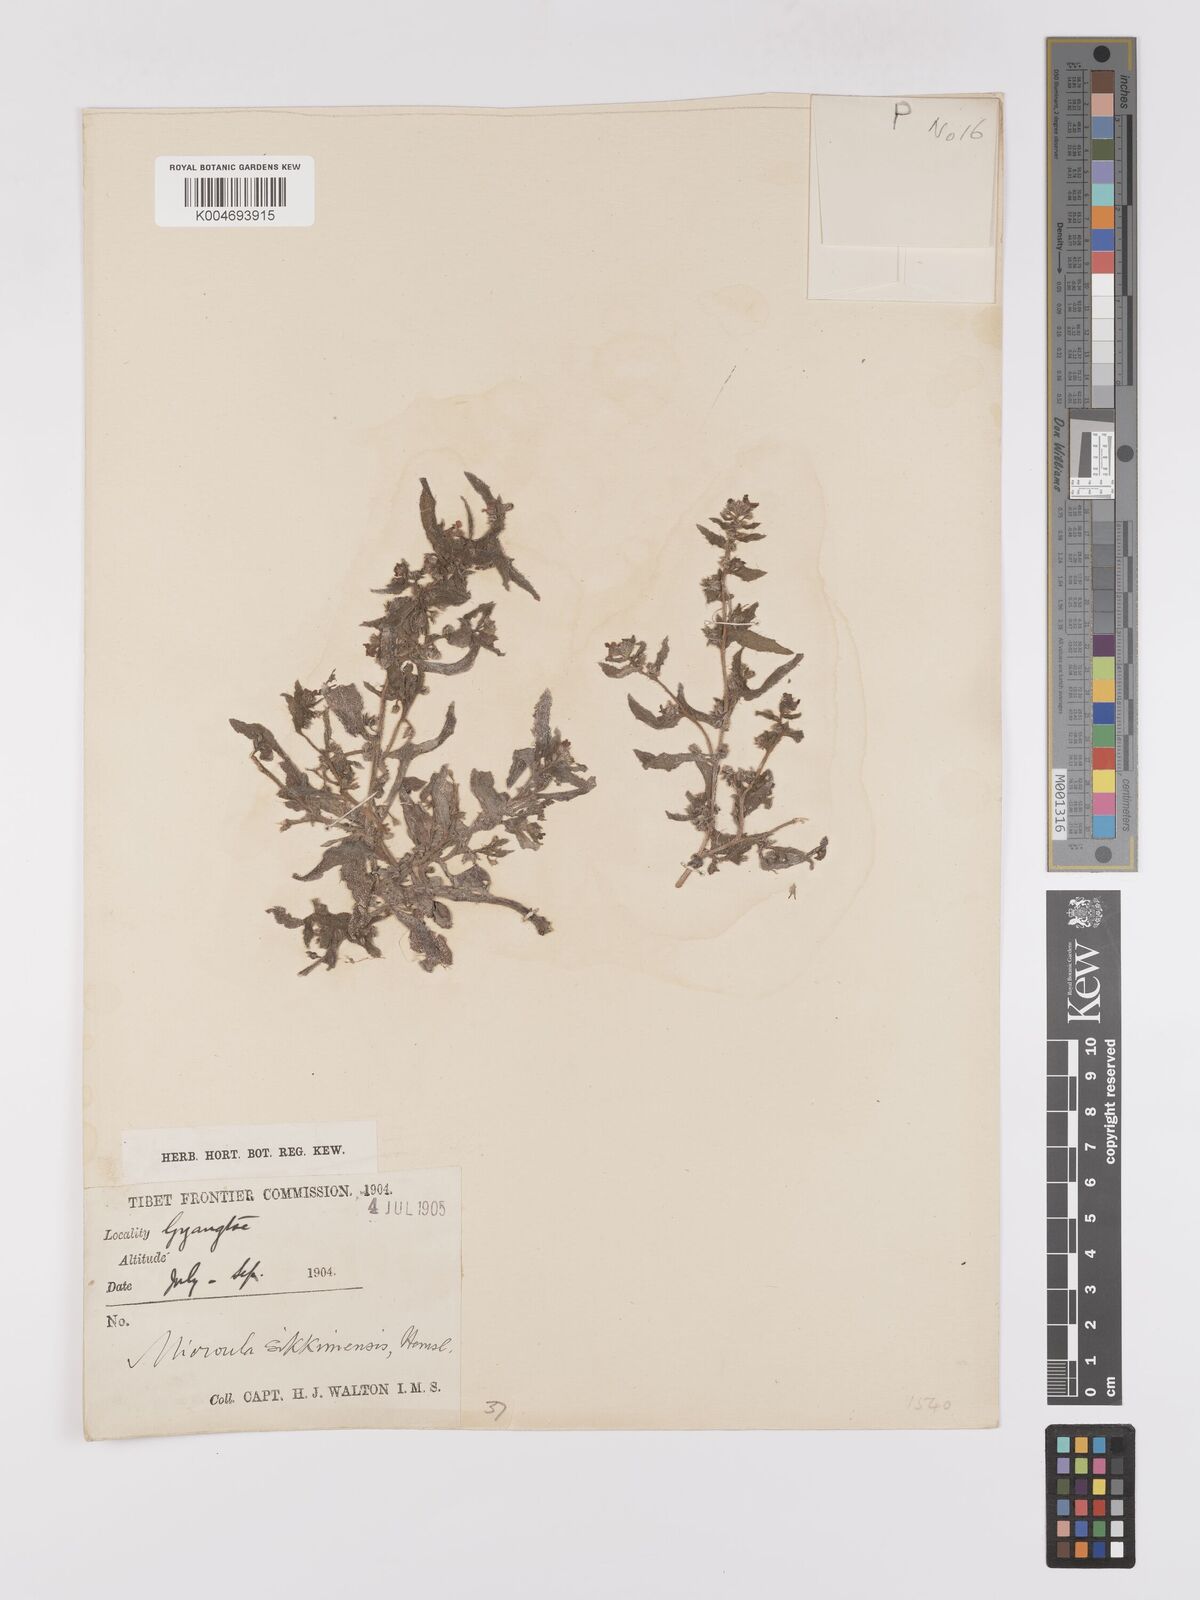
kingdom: Plantae
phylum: Tracheophyta
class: Magnoliopsida
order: Boraginales
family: Boraginaceae
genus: Microula
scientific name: Microula sikkimensis
